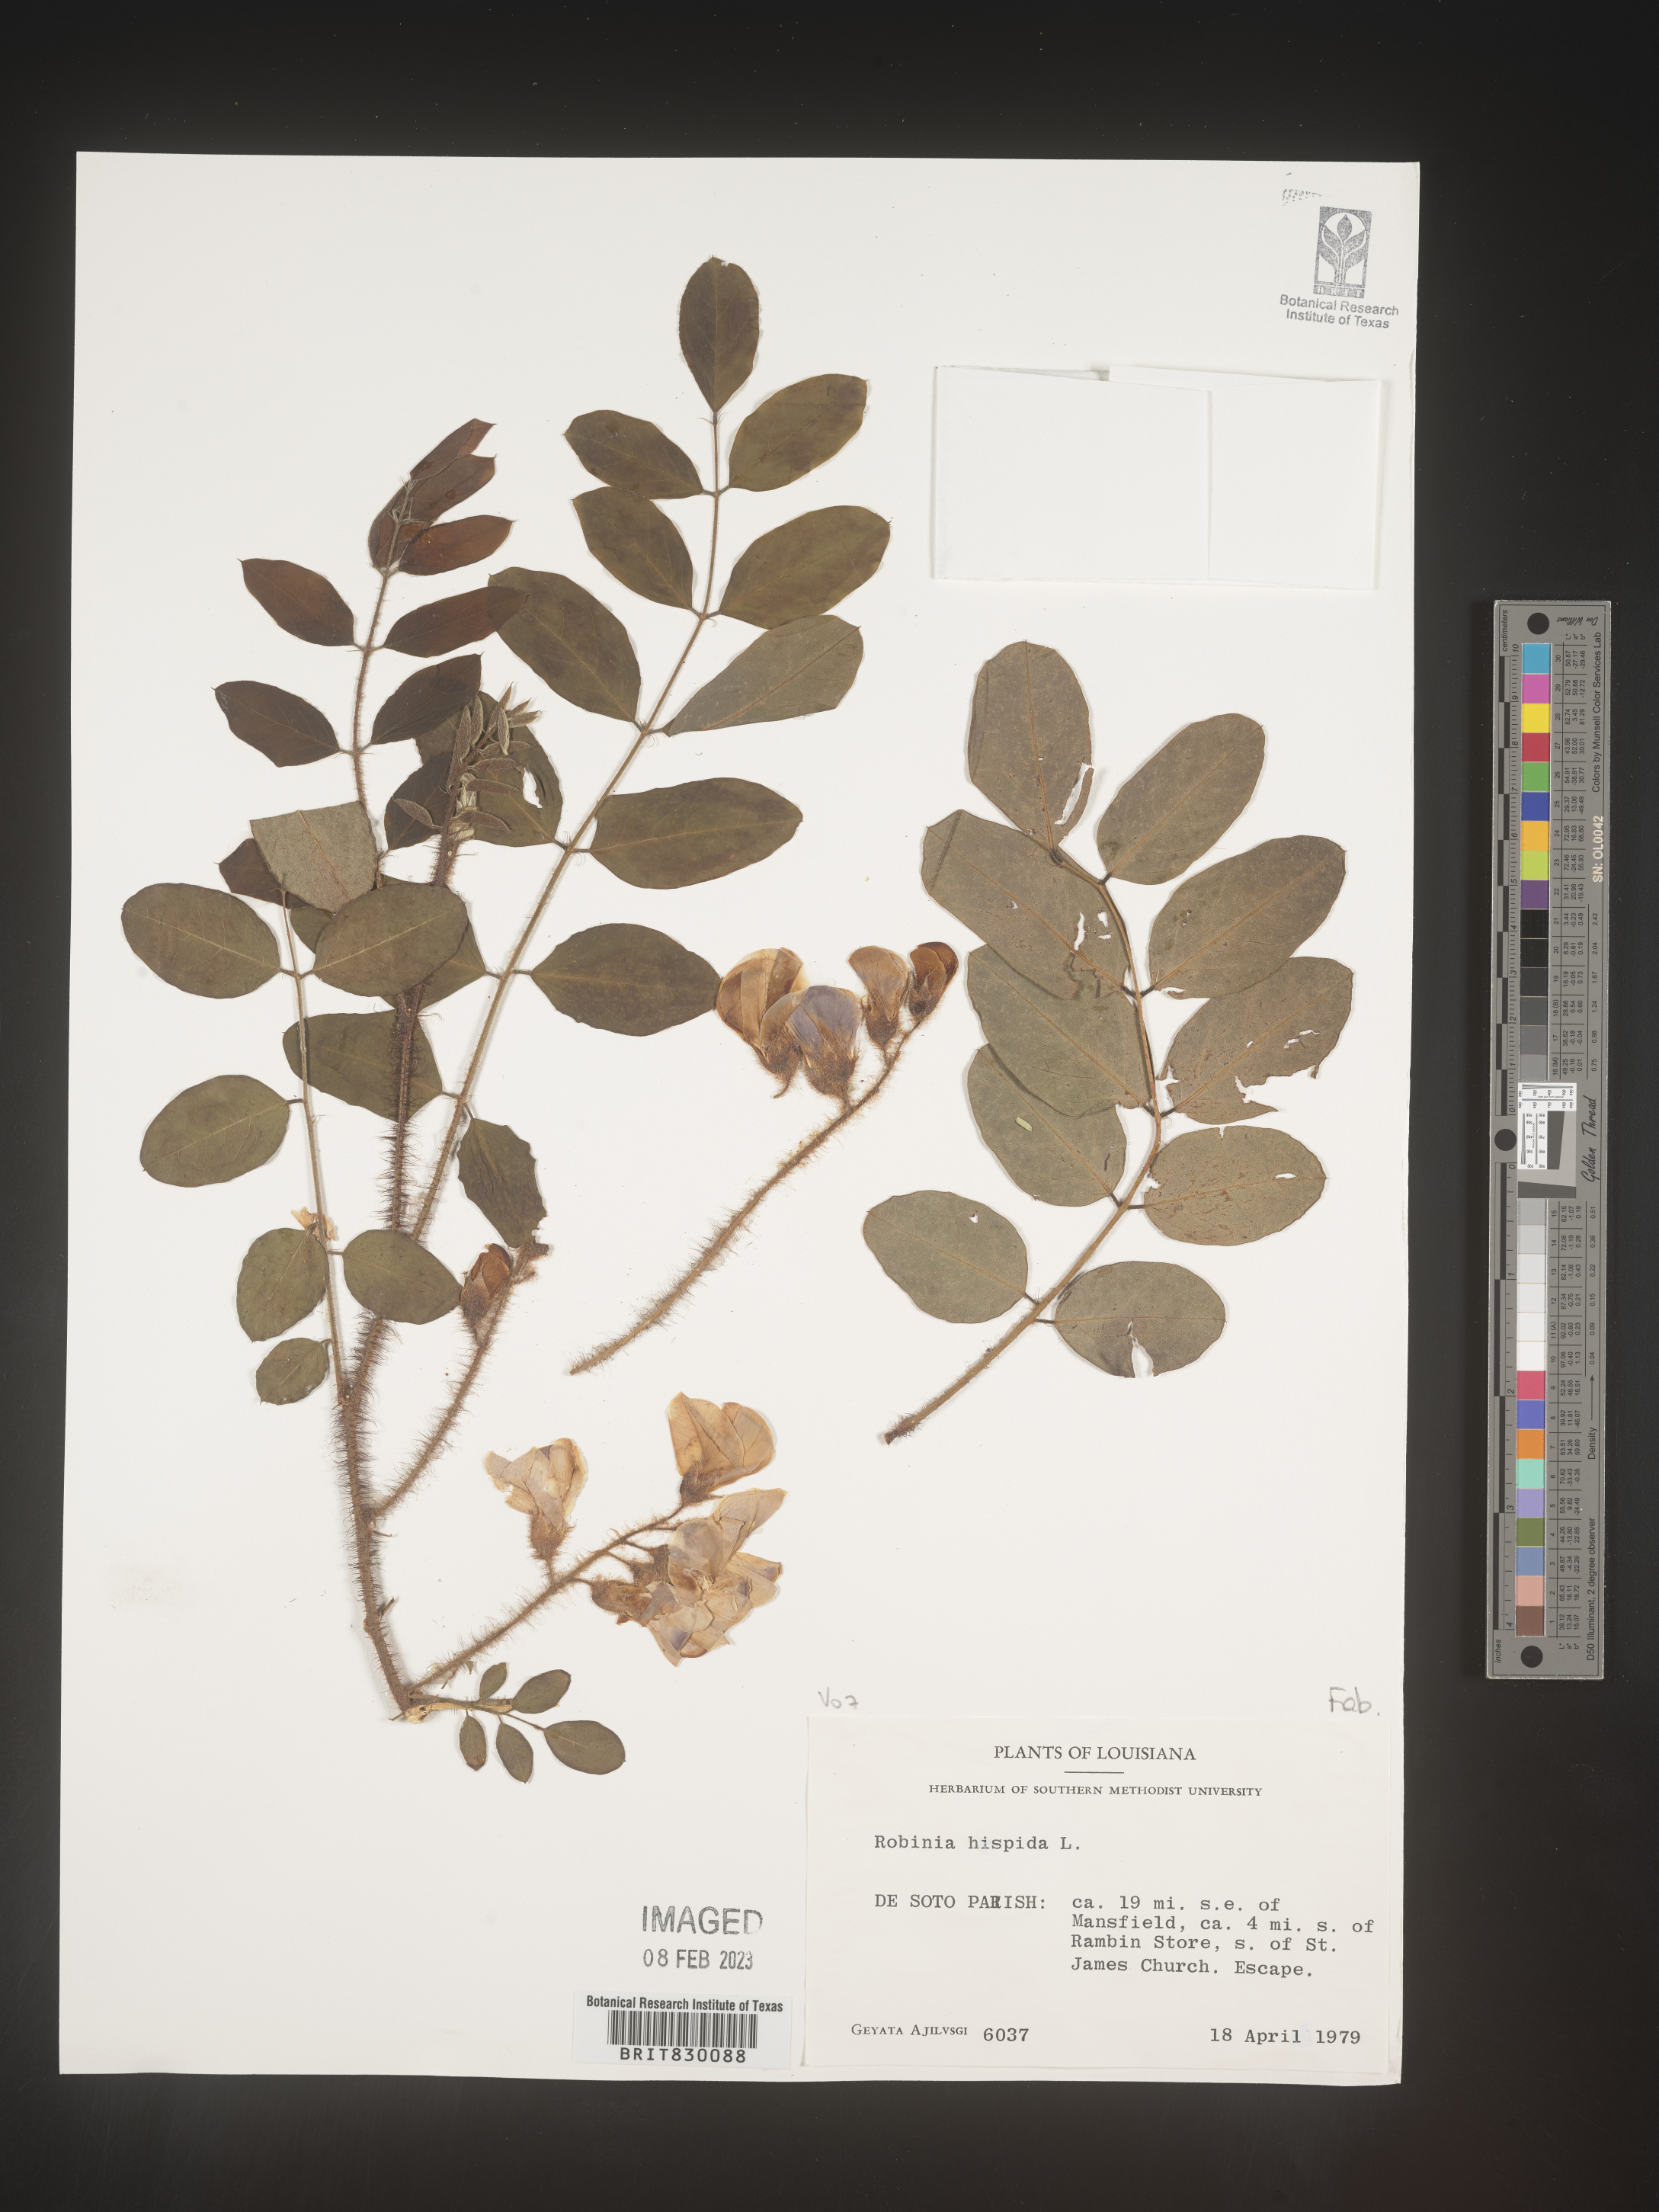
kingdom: Plantae
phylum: Tracheophyta
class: Magnoliopsida
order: Fabales
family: Fabaceae
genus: Robinia
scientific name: Robinia hispida
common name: Bristly locust
